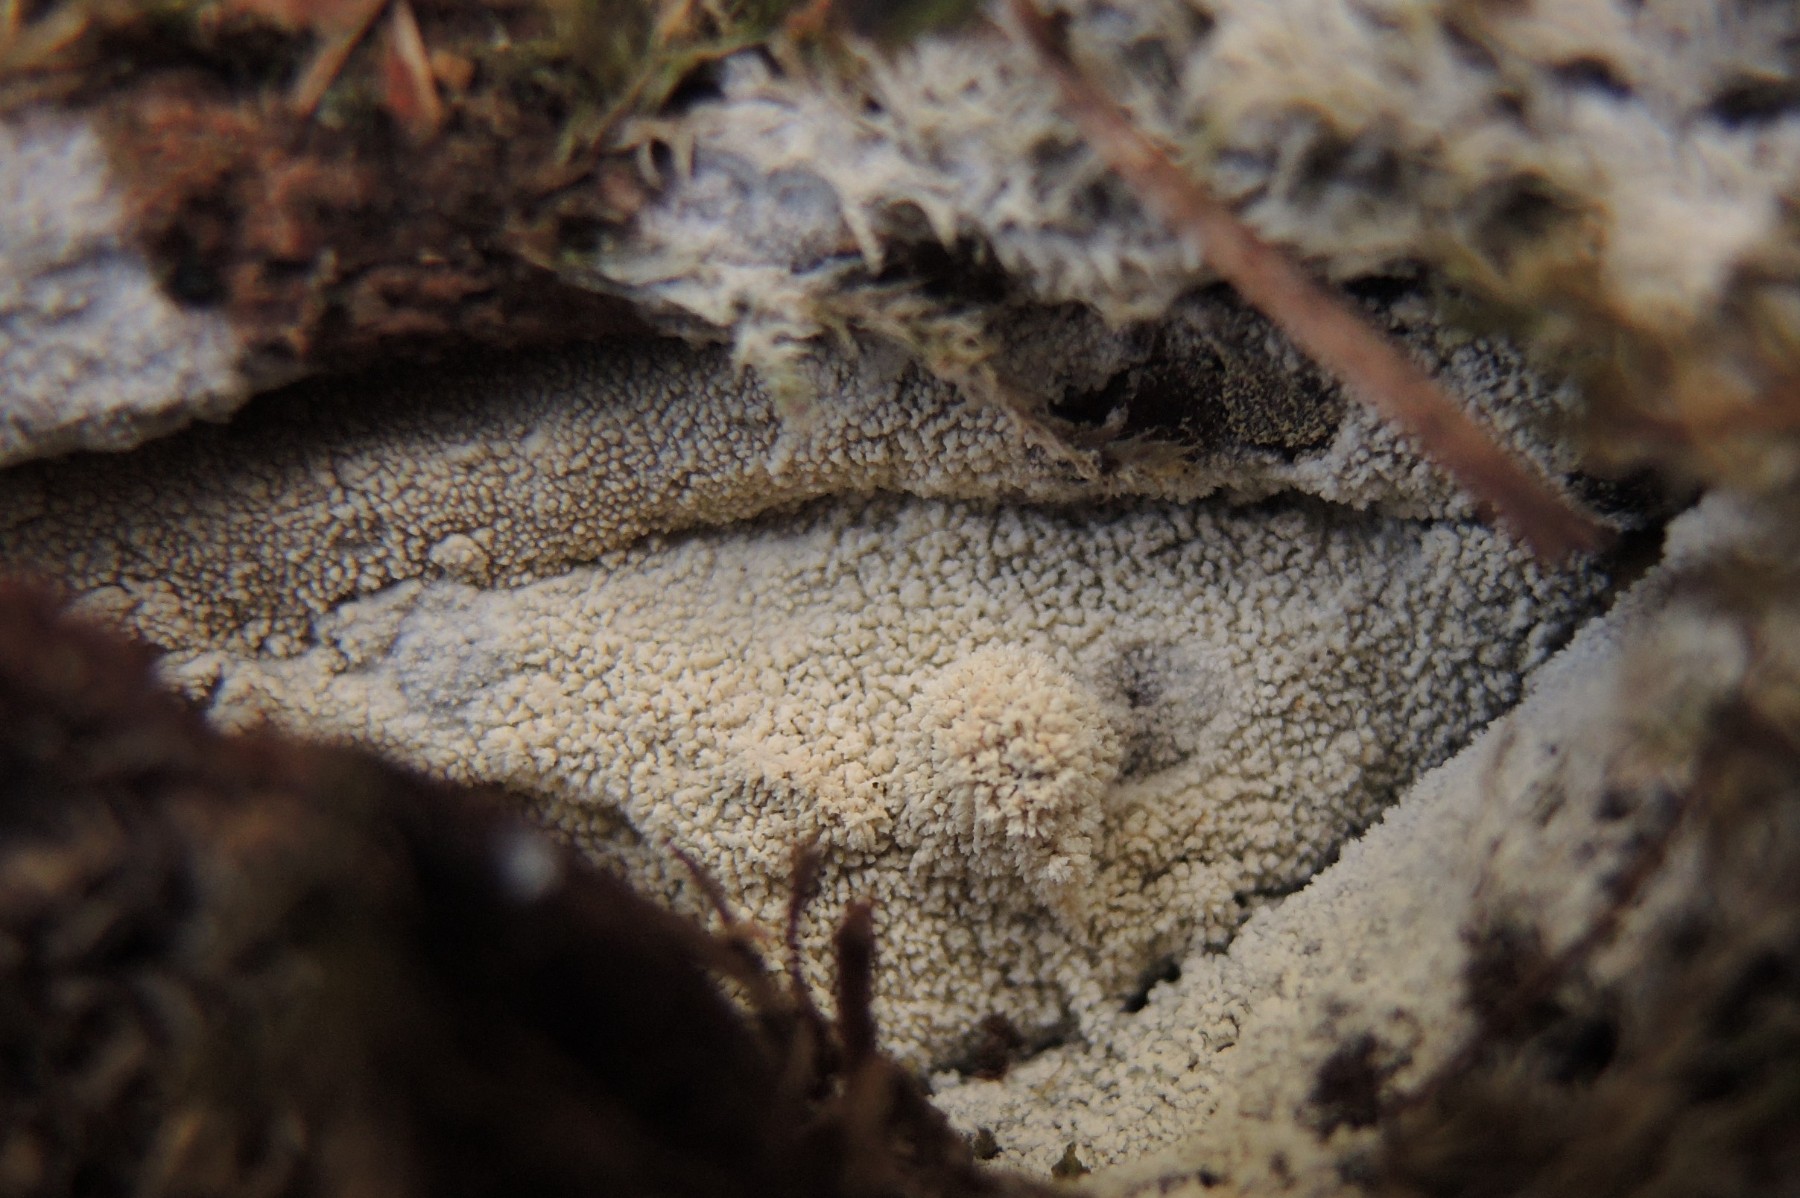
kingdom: Fungi
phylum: Basidiomycota
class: Agaricomycetes
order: Trechisporales
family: Sistotremataceae
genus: Trechispora
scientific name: Trechispora farinacea
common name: pigget vathinde
